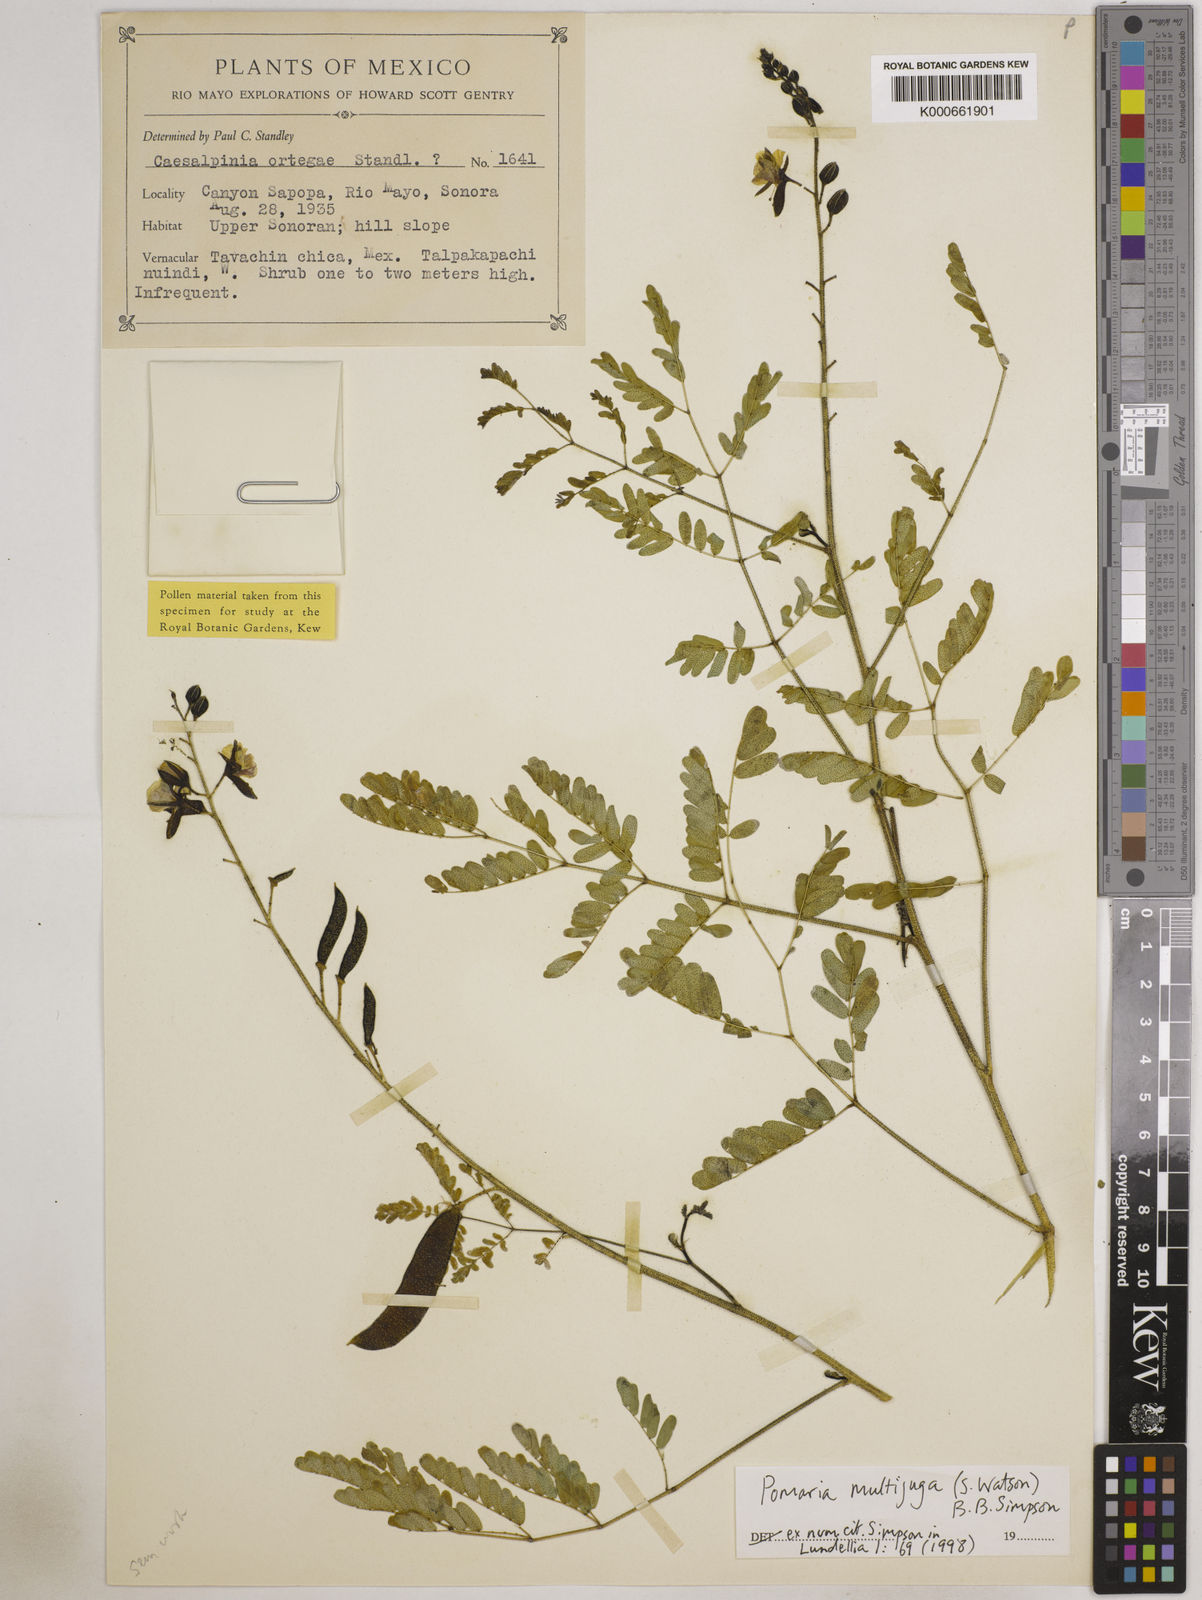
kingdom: Plantae
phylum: Tracheophyta
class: Magnoliopsida
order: Fabales
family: Fabaceae
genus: Pomaria
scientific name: Pomaria multijuga
